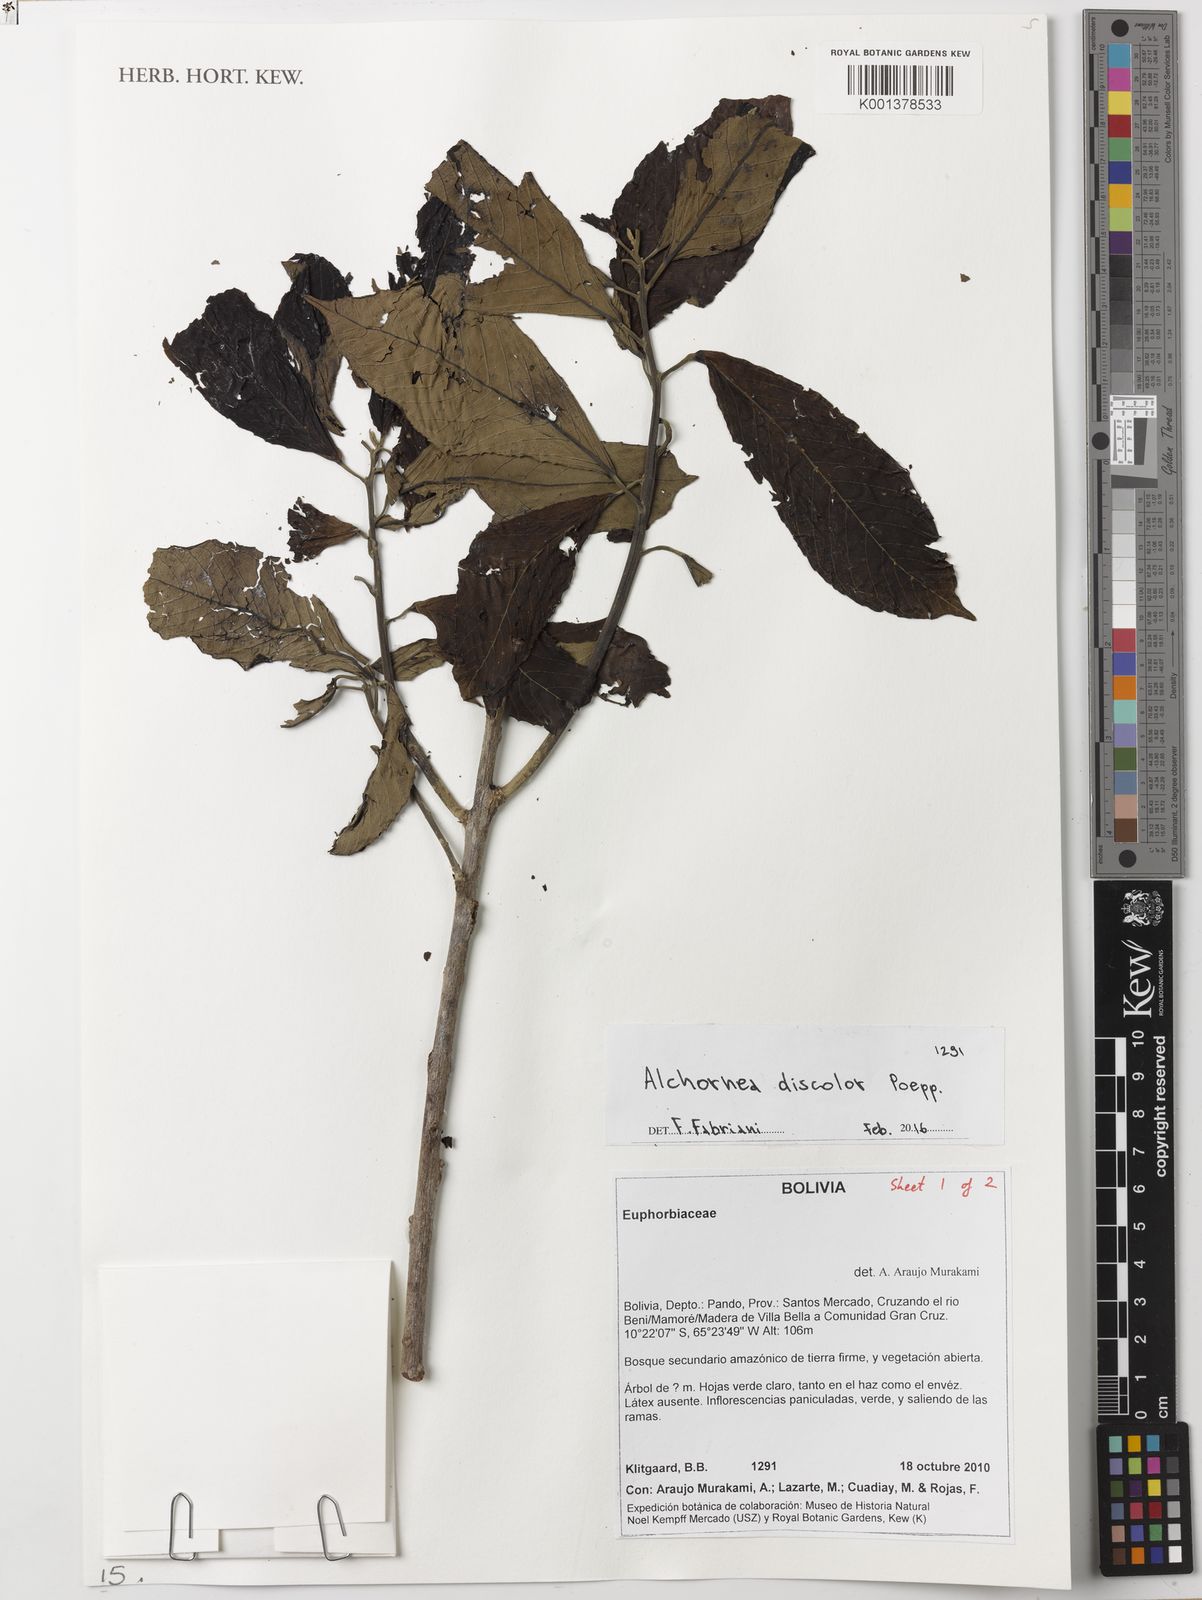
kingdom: Plantae
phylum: Tracheophyta
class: Magnoliopsida
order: Malpighiales
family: Euphorbiaceae
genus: Alchornea
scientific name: Alchornea discolor
